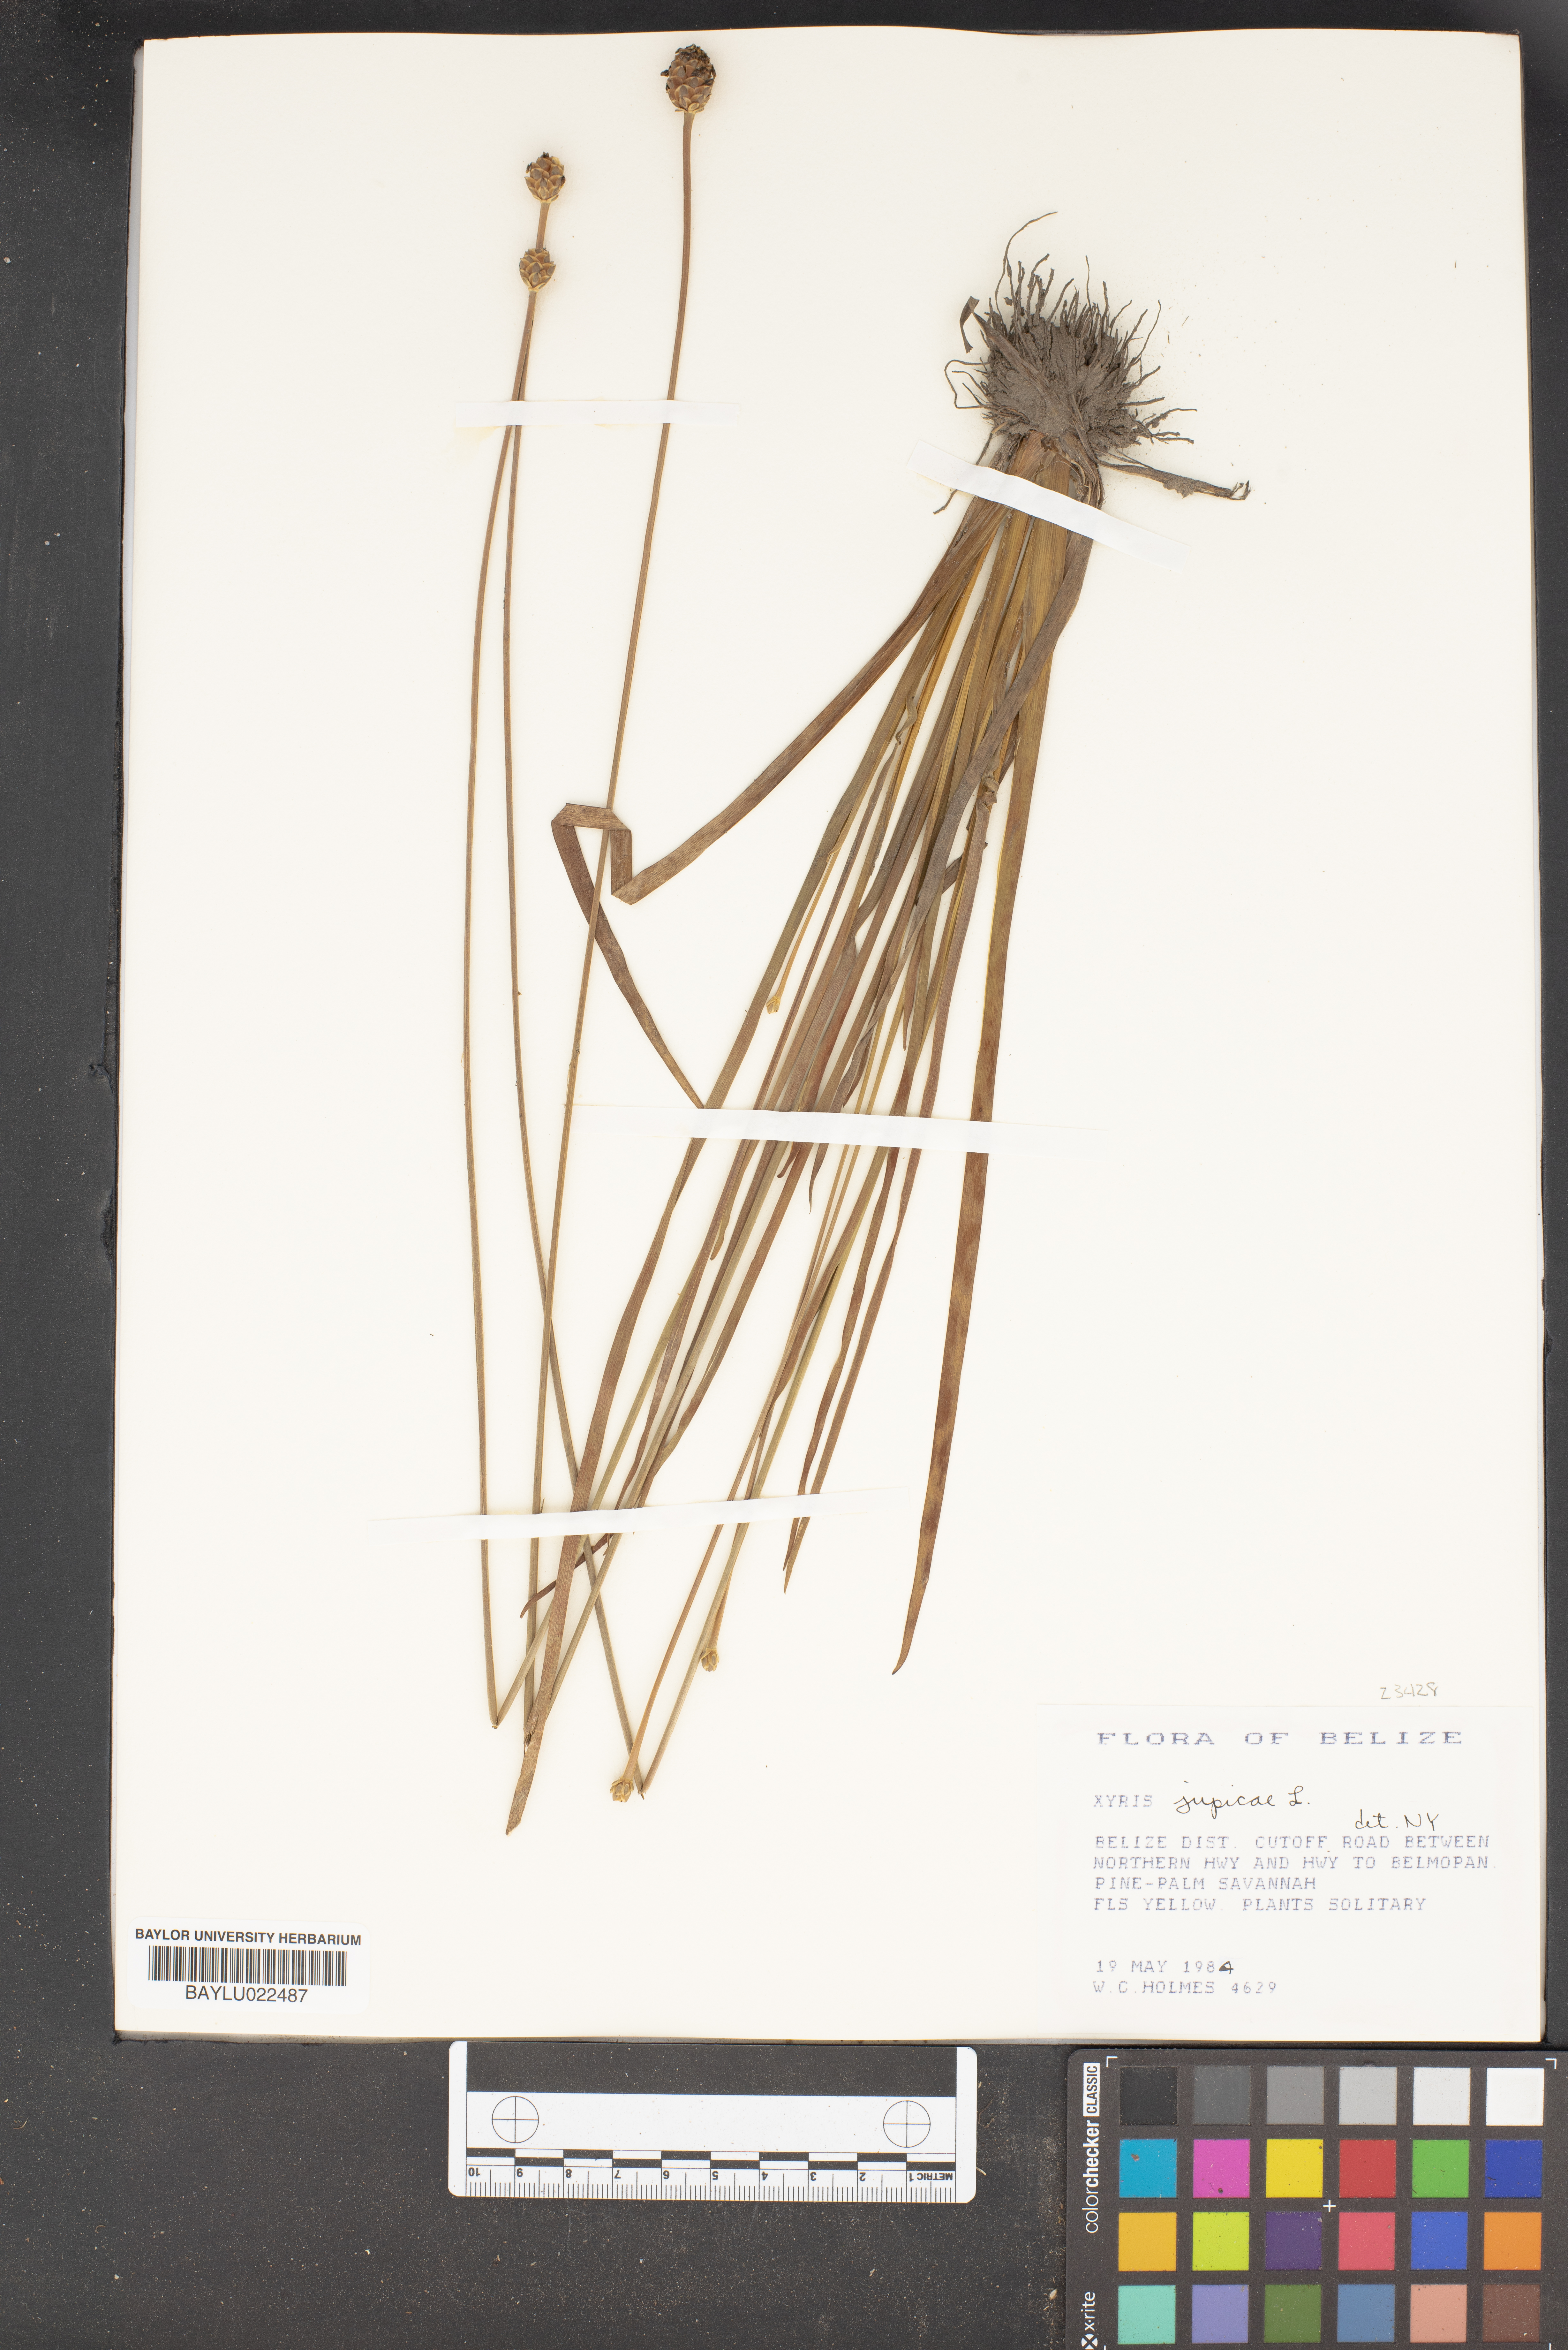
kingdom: Plantae
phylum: Tracheophyta
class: Liliopsida
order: Poales
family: Xyridaceae
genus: Xyris
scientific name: Xyris jupicai
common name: Richard's yelloweyed grass
